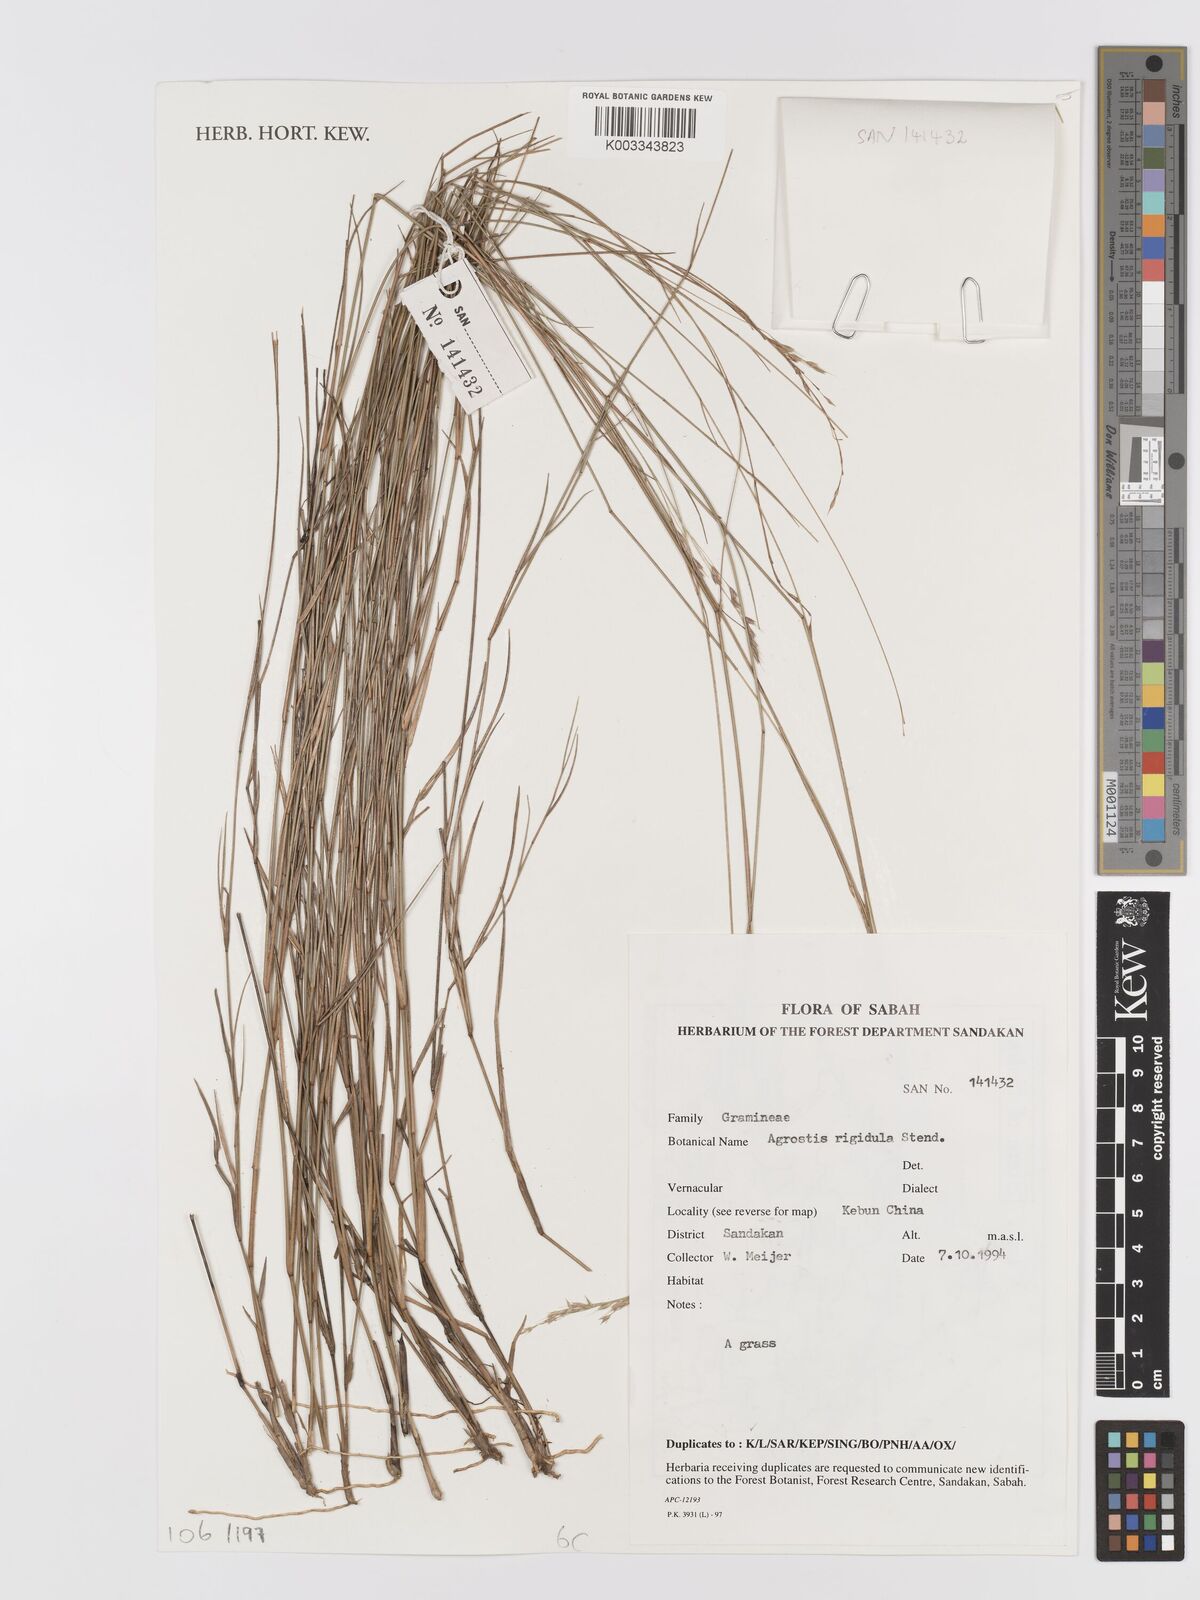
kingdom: Plantae
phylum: Tracheophyta
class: Liliopsida
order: Poales
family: Poaceae
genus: Agrostis
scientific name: Agrostis infirma
